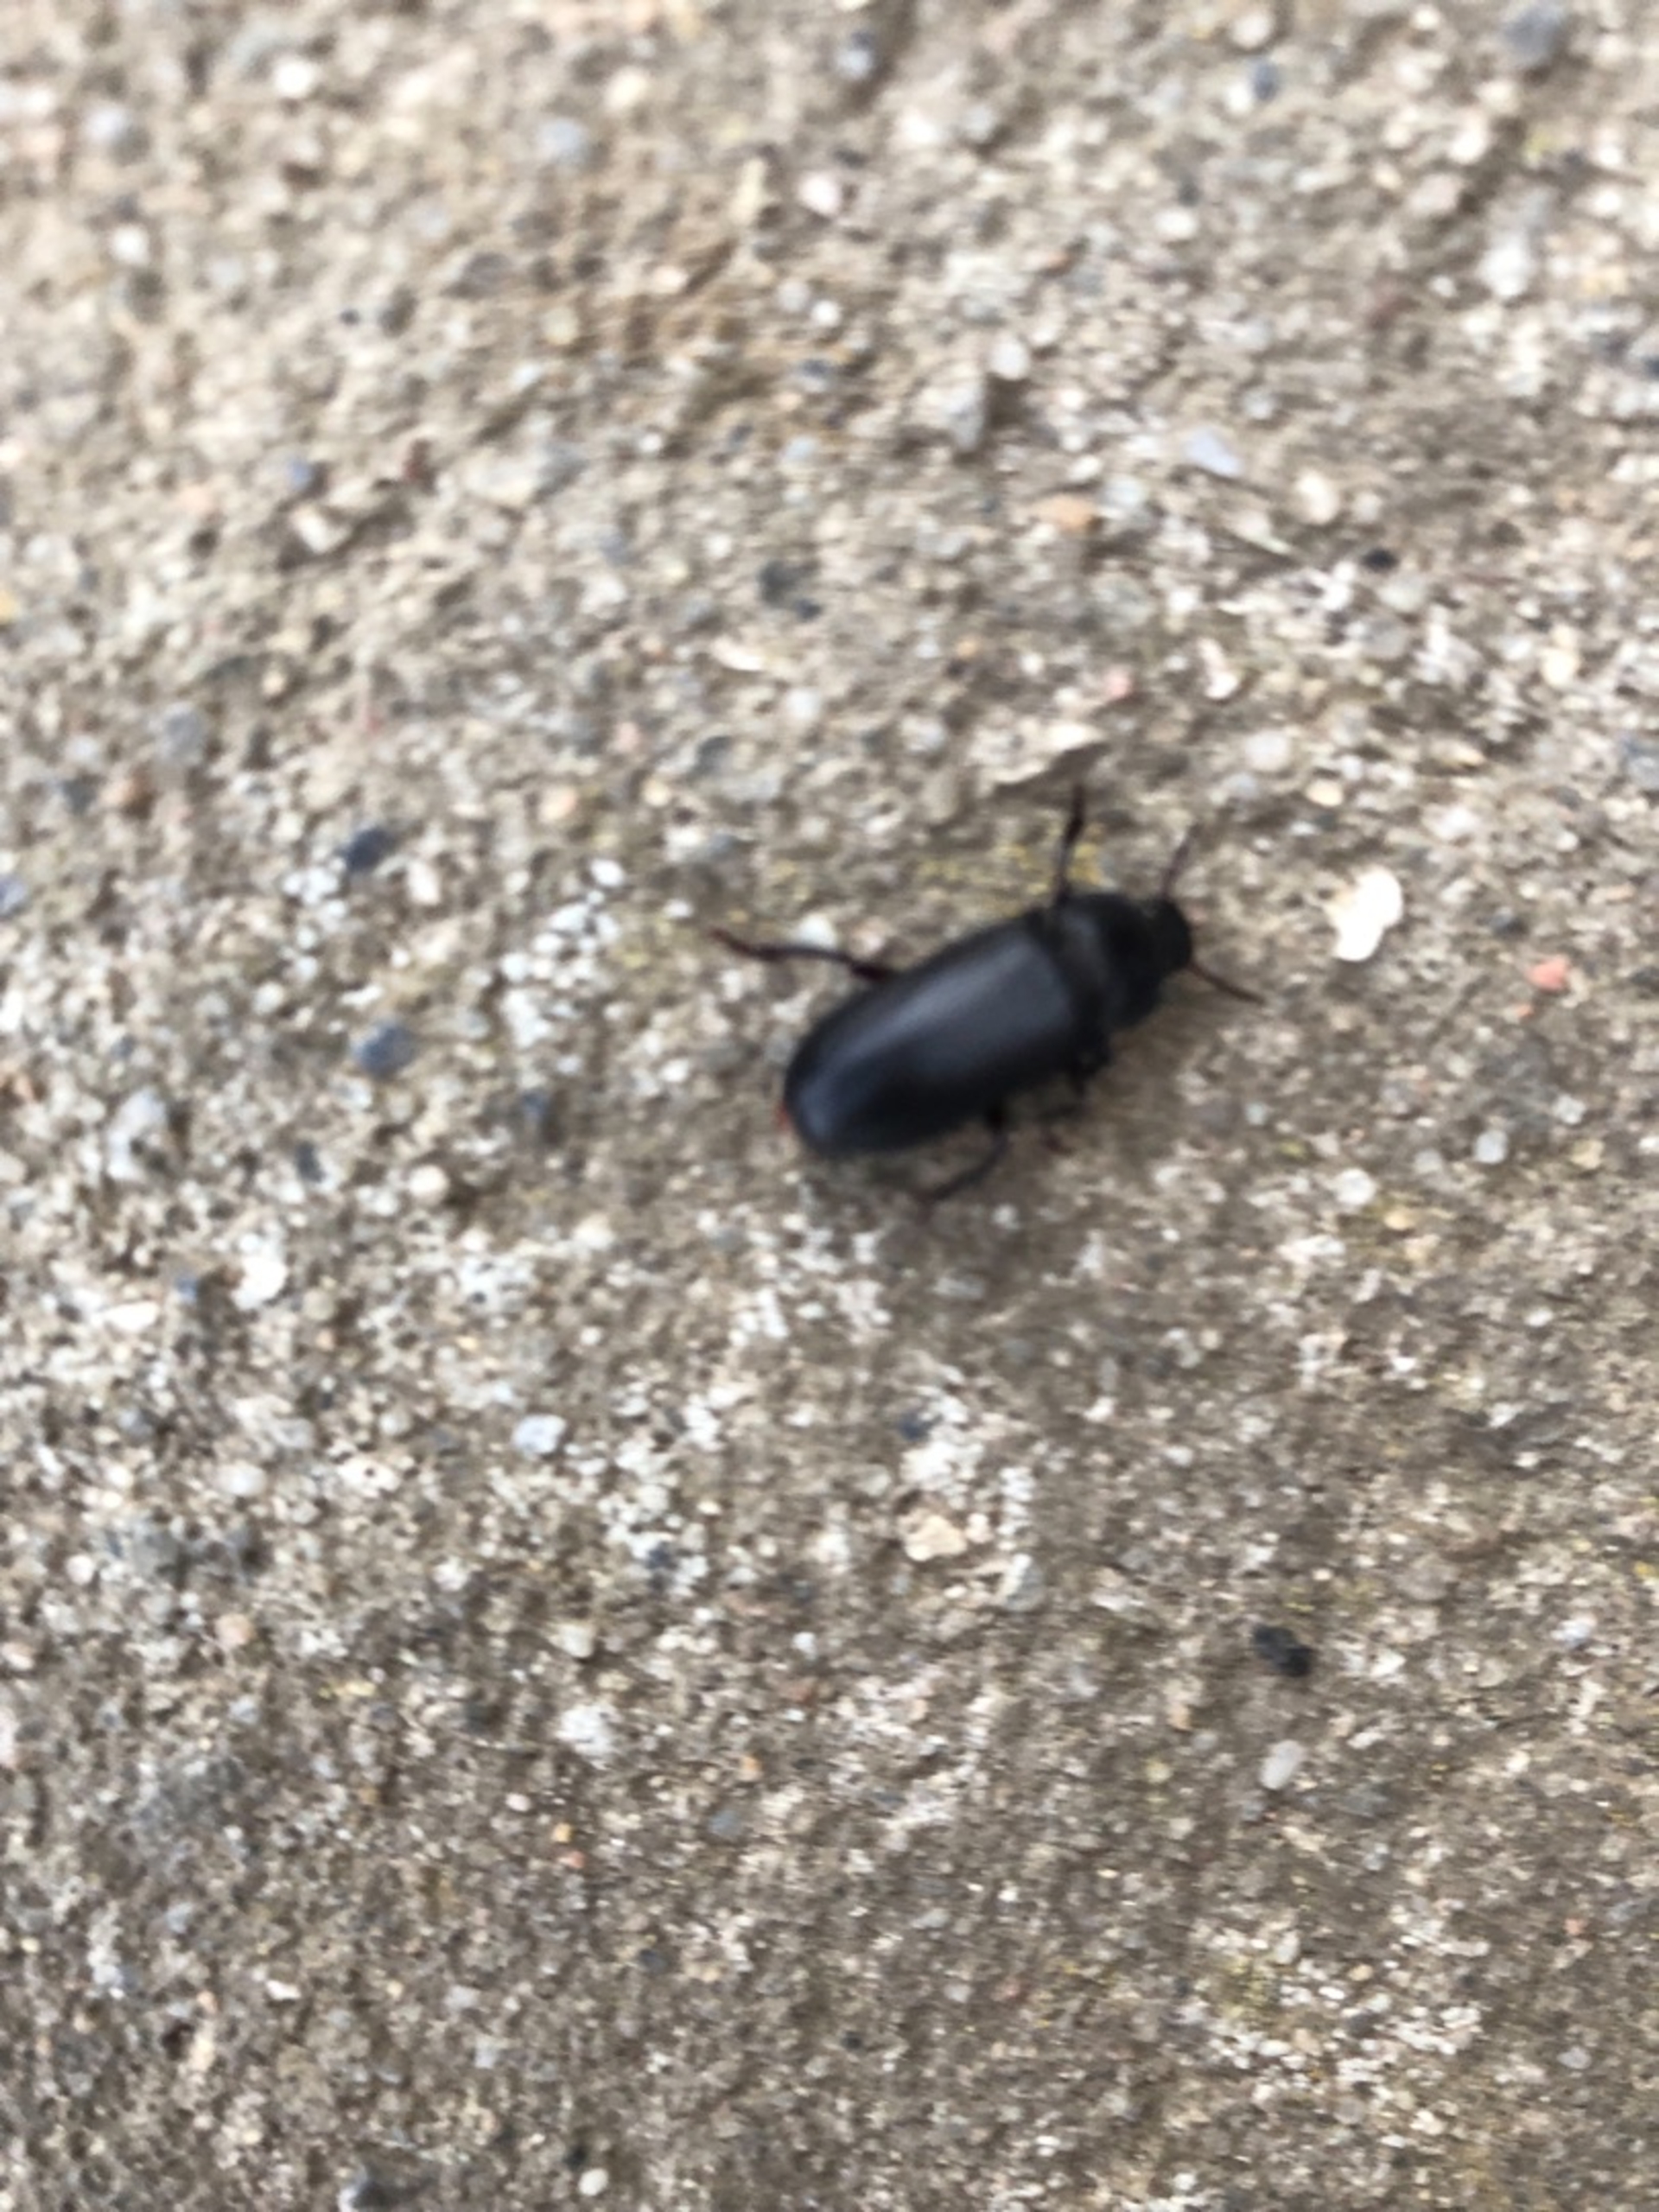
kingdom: Animalia
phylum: Arthropoda
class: Insecta
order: Coleoptera
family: Tenebrionidae
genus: Tenebrio
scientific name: Tenebrio molitor
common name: Melskrubbe
